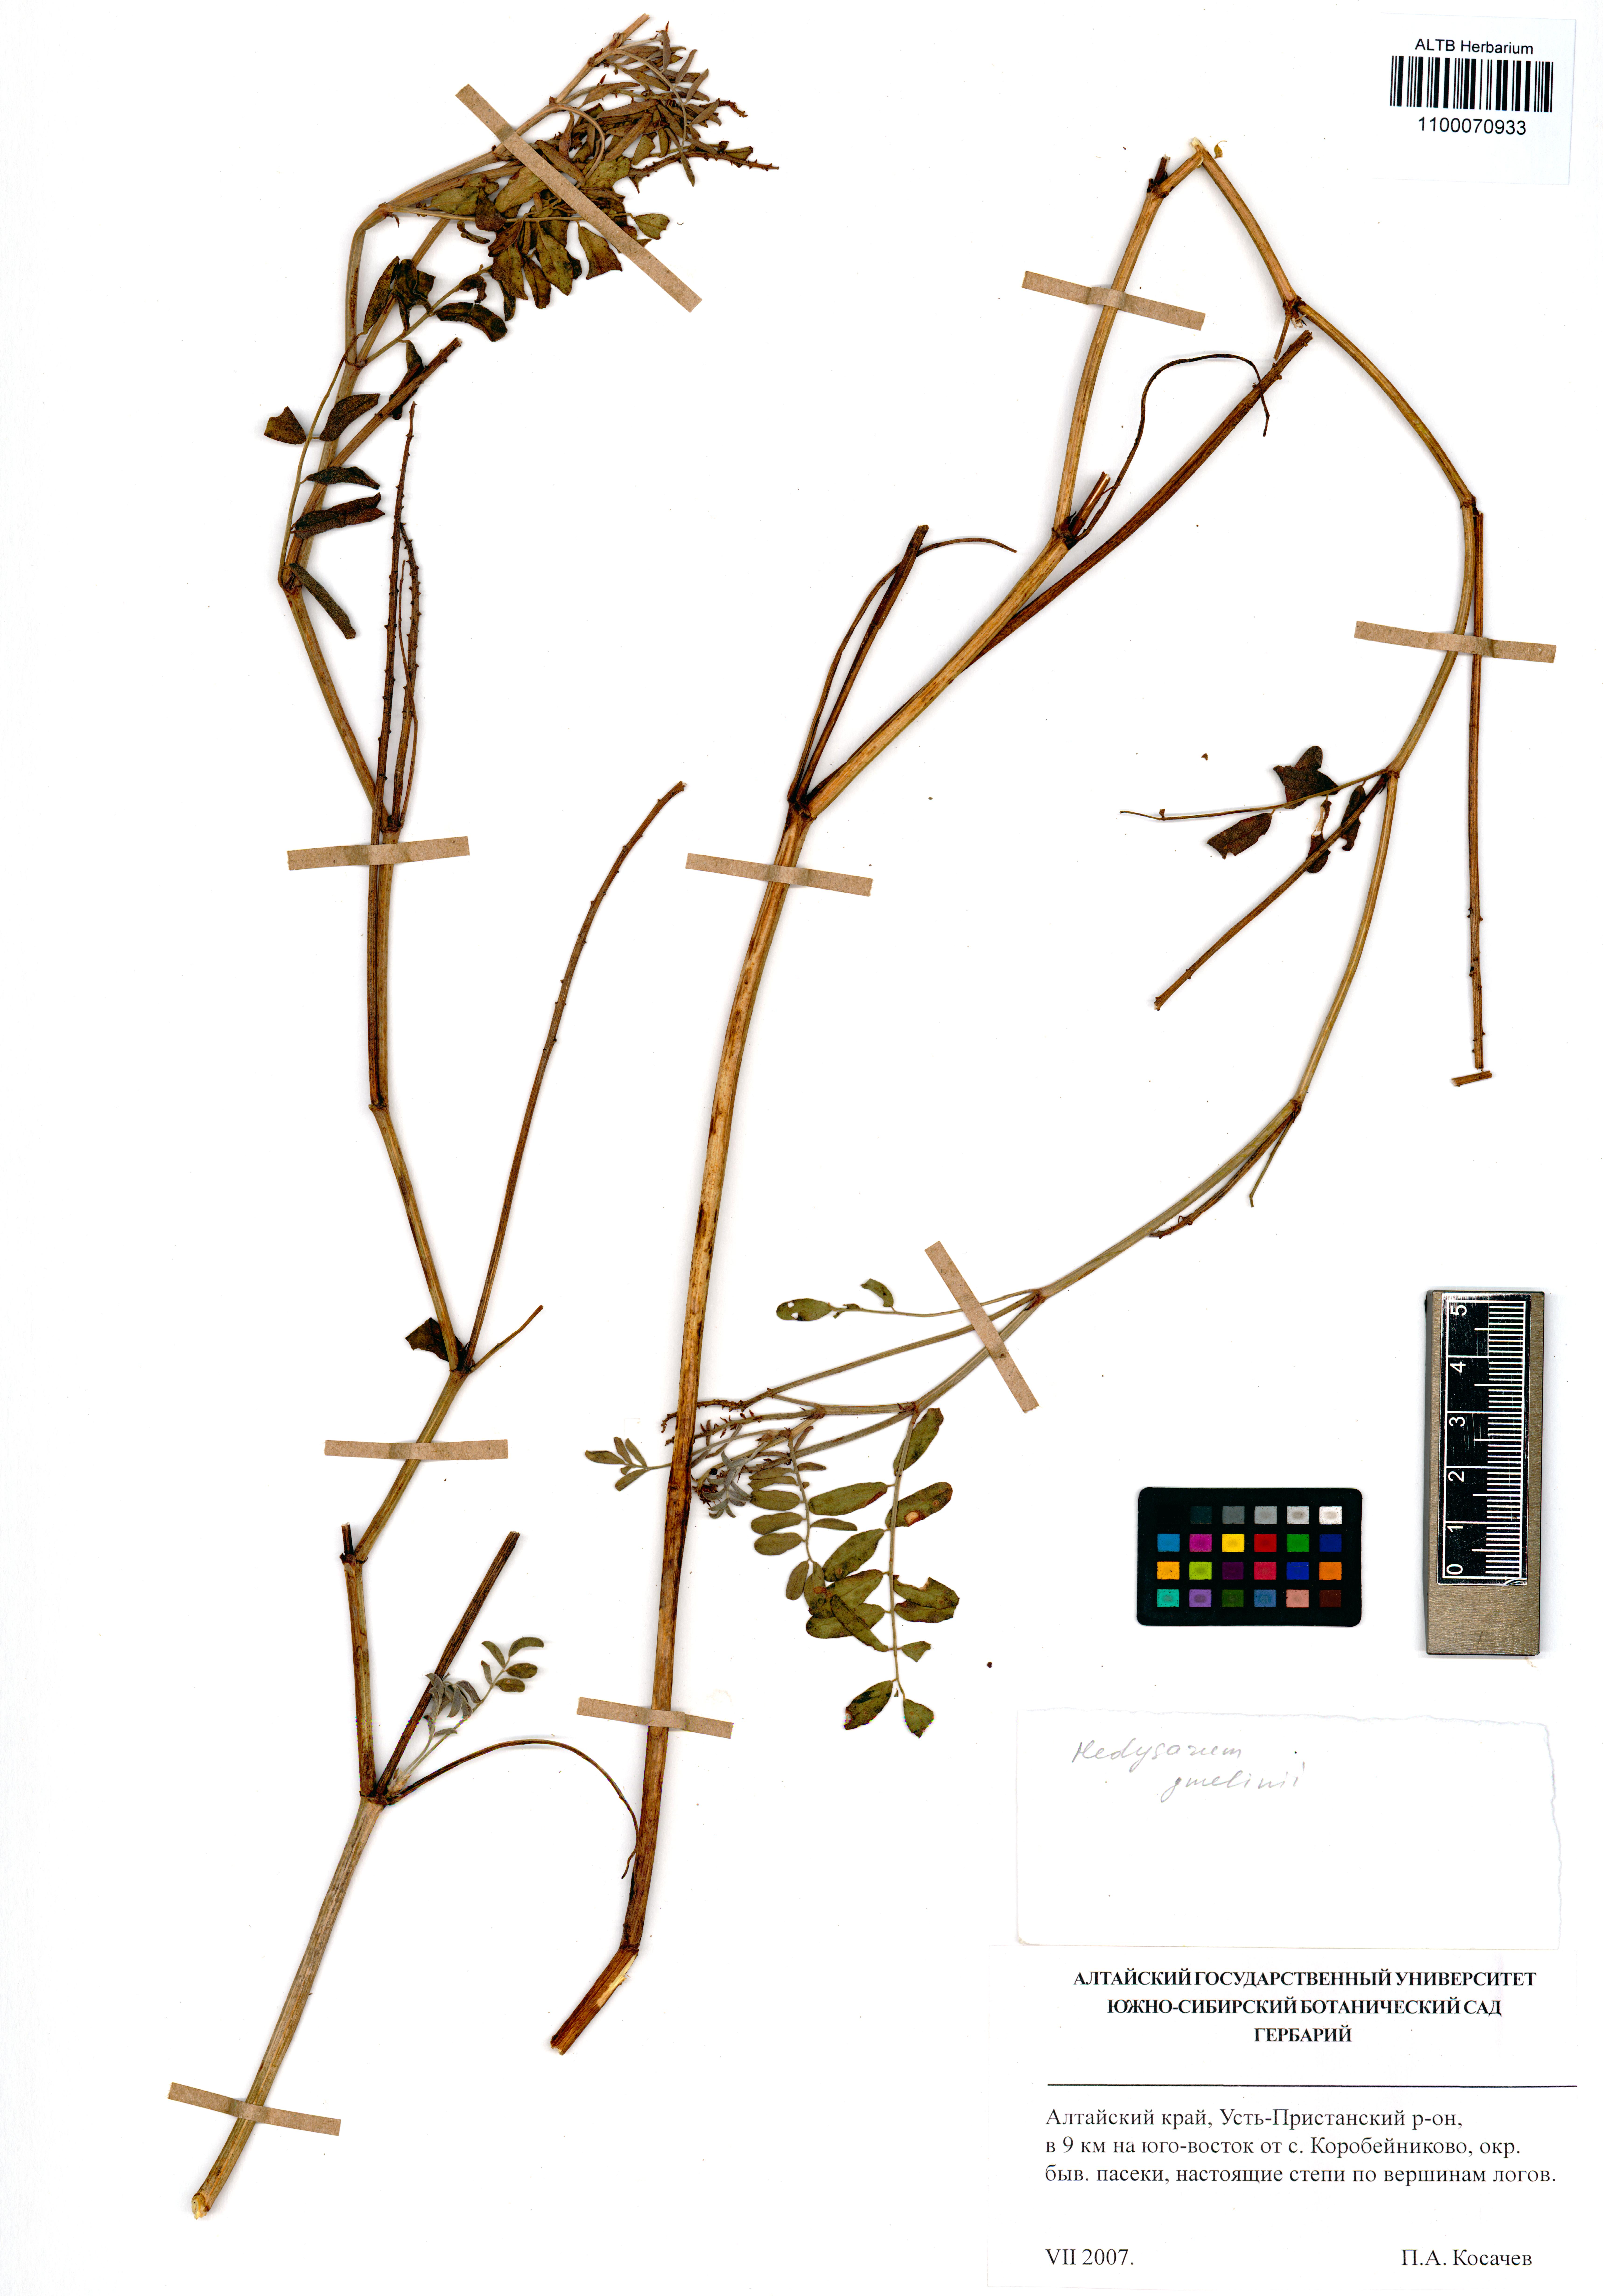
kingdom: Plantae
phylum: Tracheophyta
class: Magnoliopsida
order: Fabales
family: Fabaceae
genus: Hedysarum
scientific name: Hedysarum gmelinii
